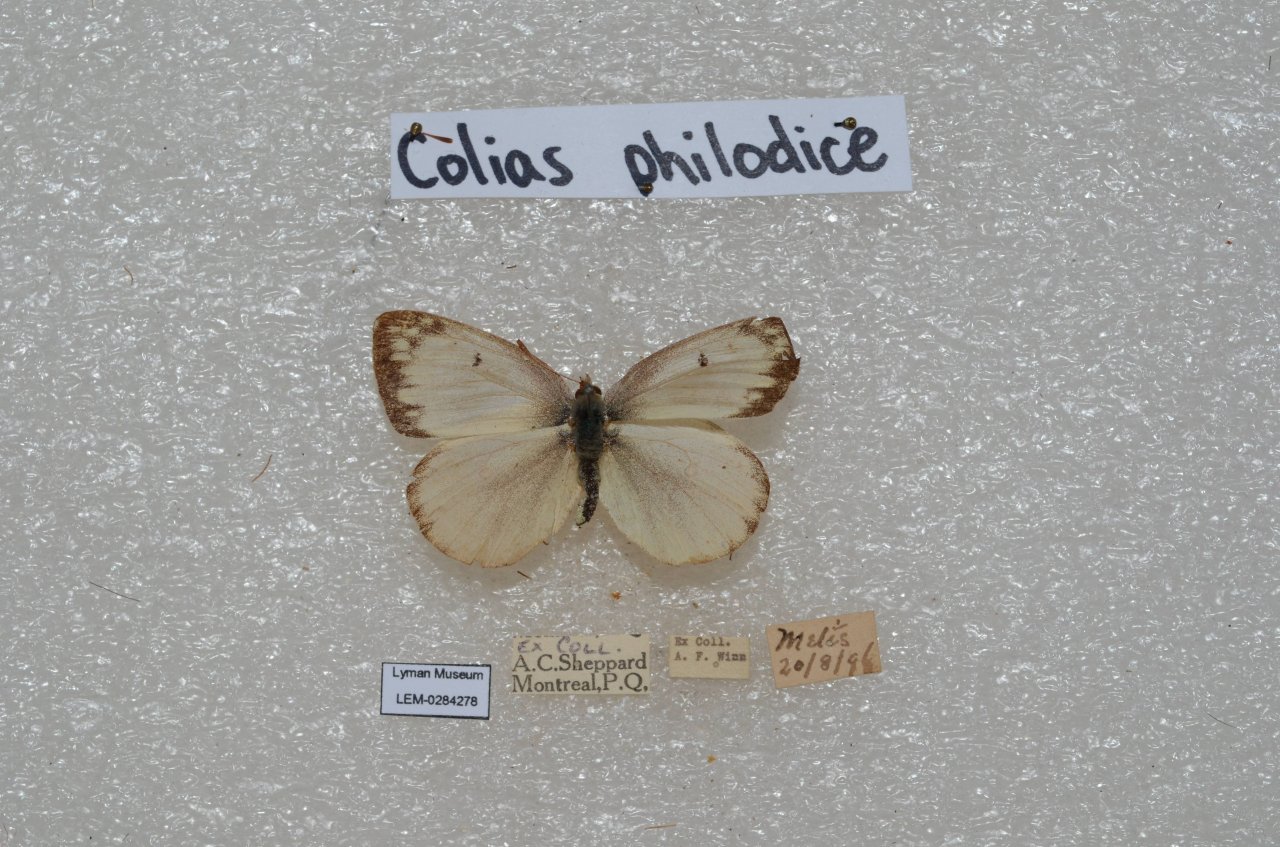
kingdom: Animalia
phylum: Arthropoda
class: Insecta
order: Lepidoptera
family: Pieridae
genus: Colias
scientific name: Colias philodice
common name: Clouded Sulphur
